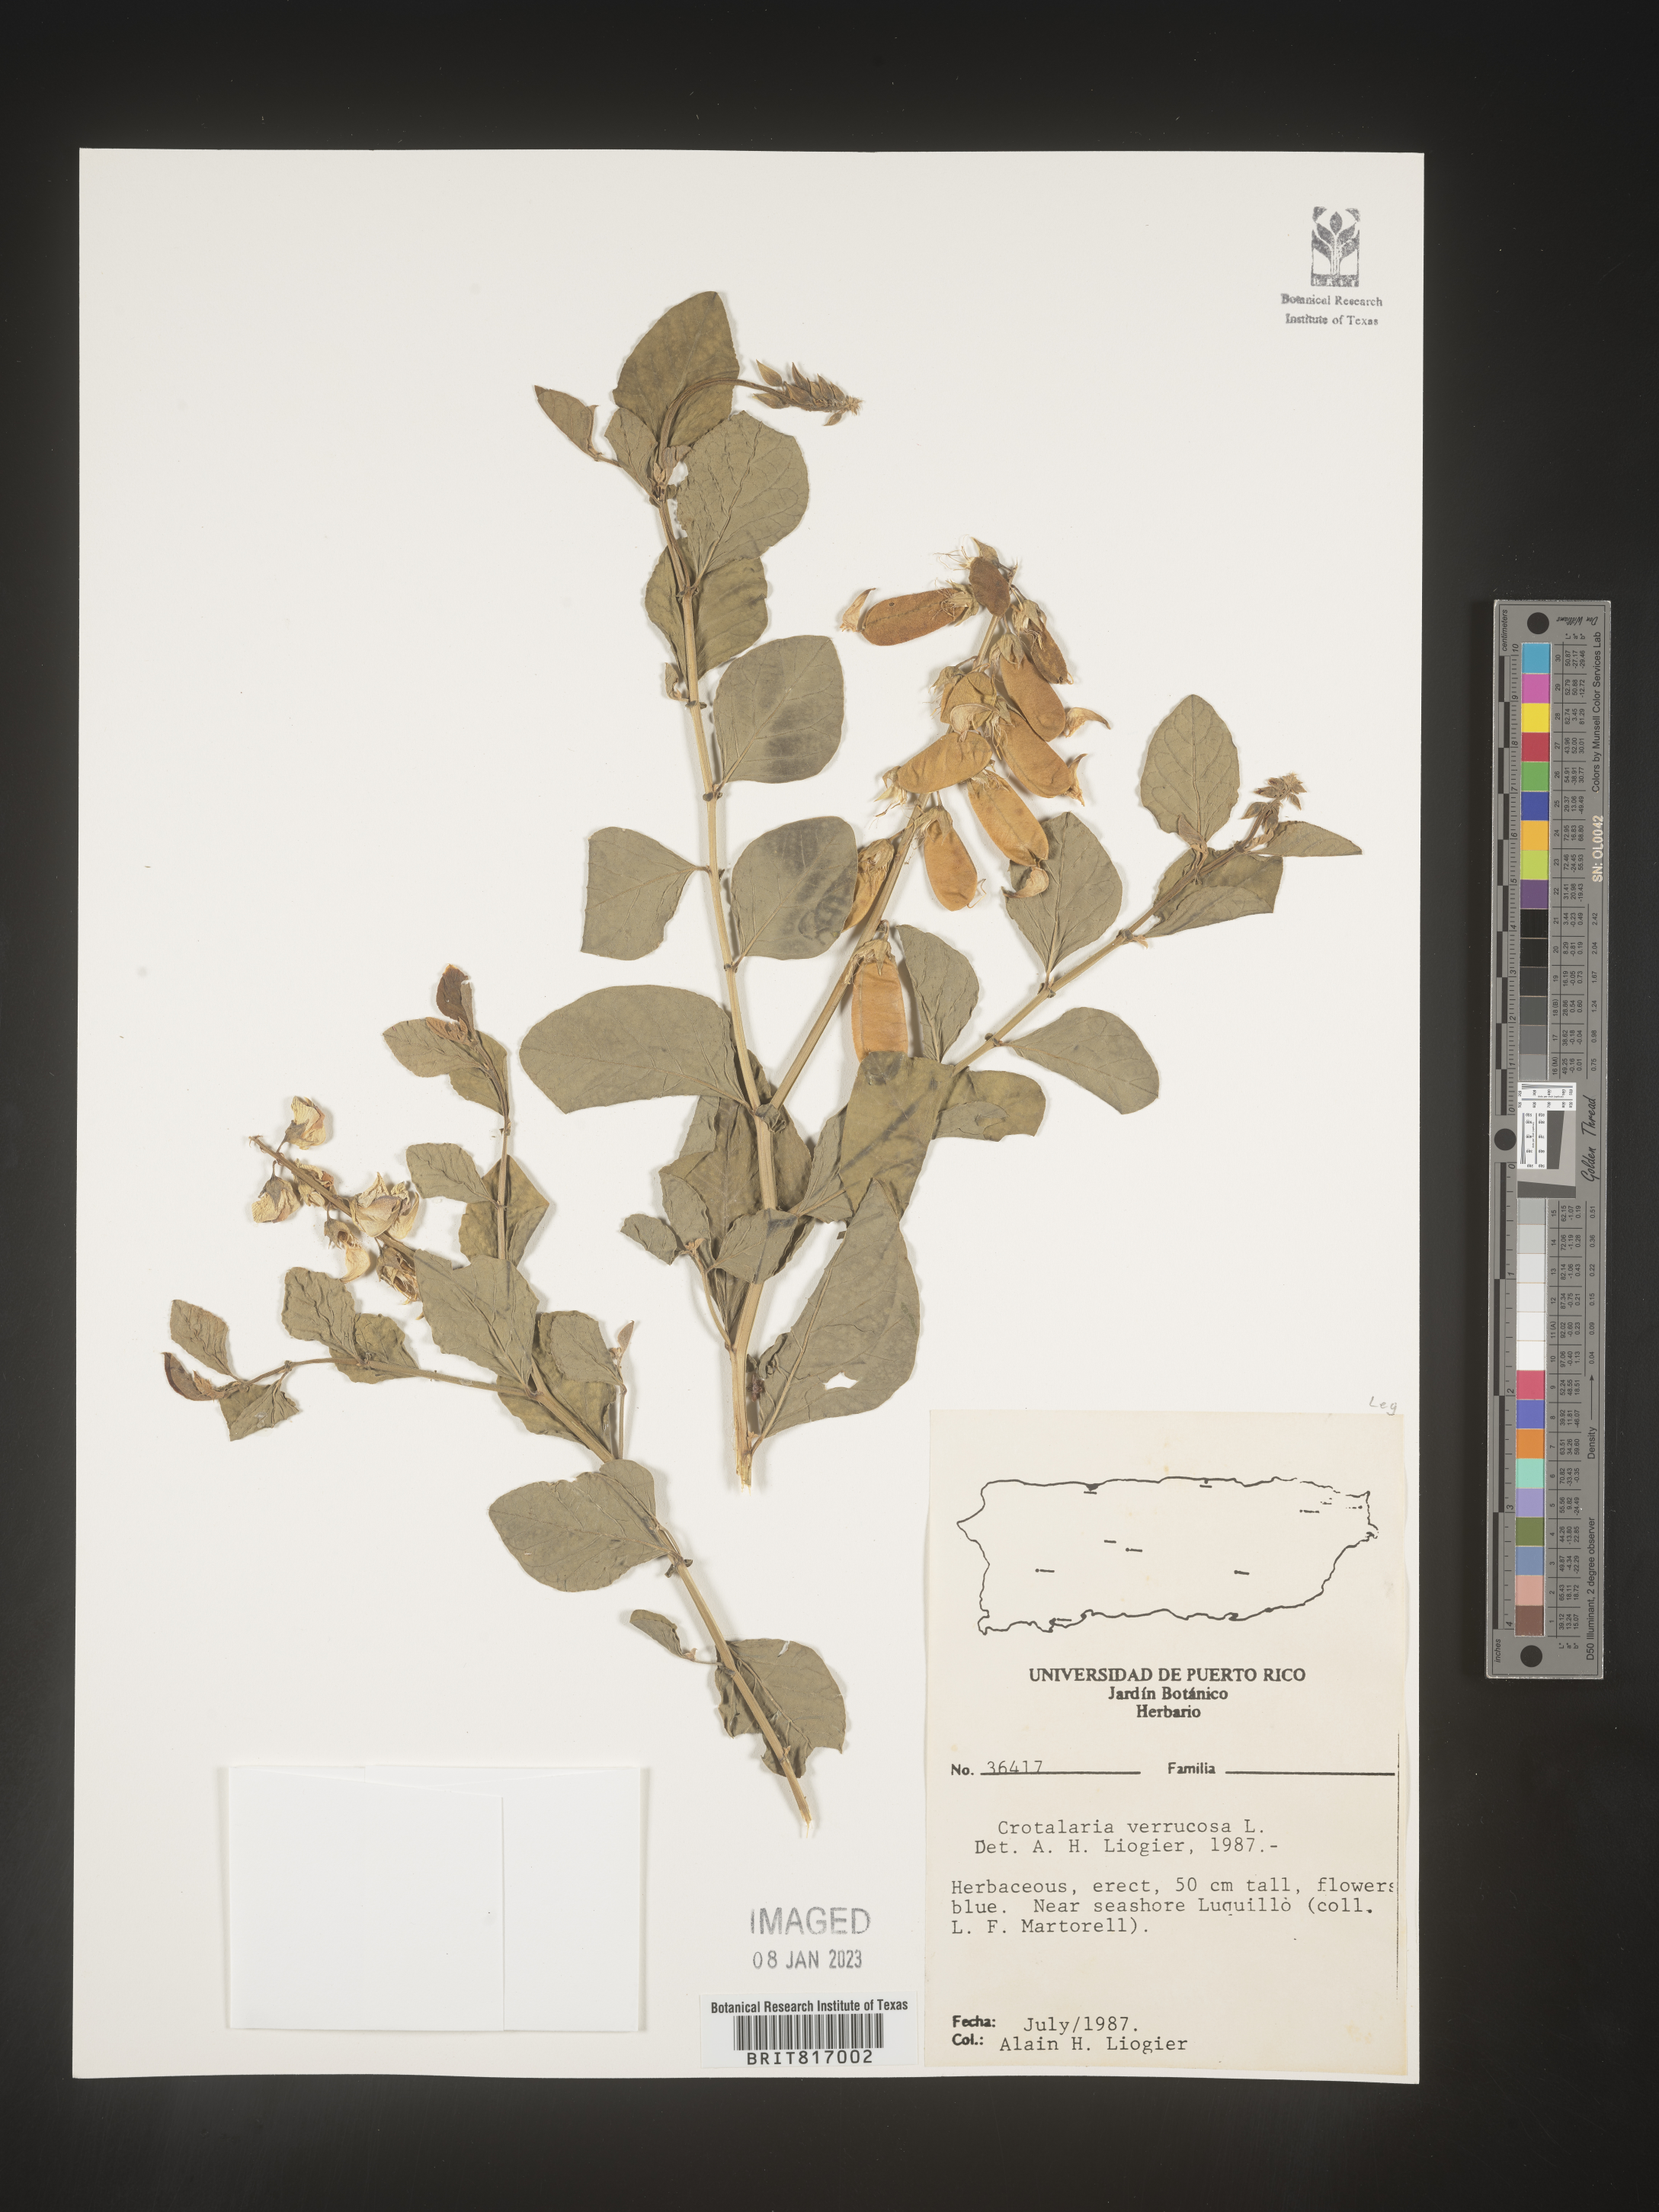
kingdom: Plantae
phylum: Tracheophyta
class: Magnoliopsida
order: Fabales
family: Fabaceae
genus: Crotalaria
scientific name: Crotalaria
